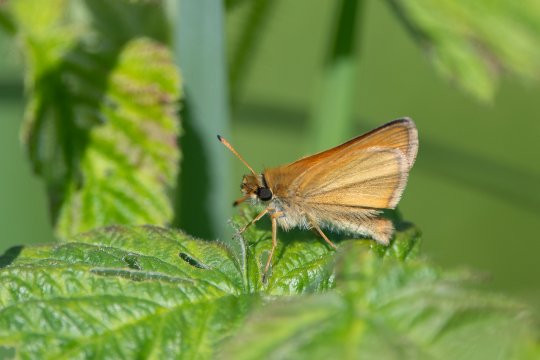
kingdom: Animalia
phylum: Arthropoda
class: Insecta
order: Lepidoptera
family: Hesperiidae
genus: Thymelicus
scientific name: Thymelicus lineola
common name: European Skipper
